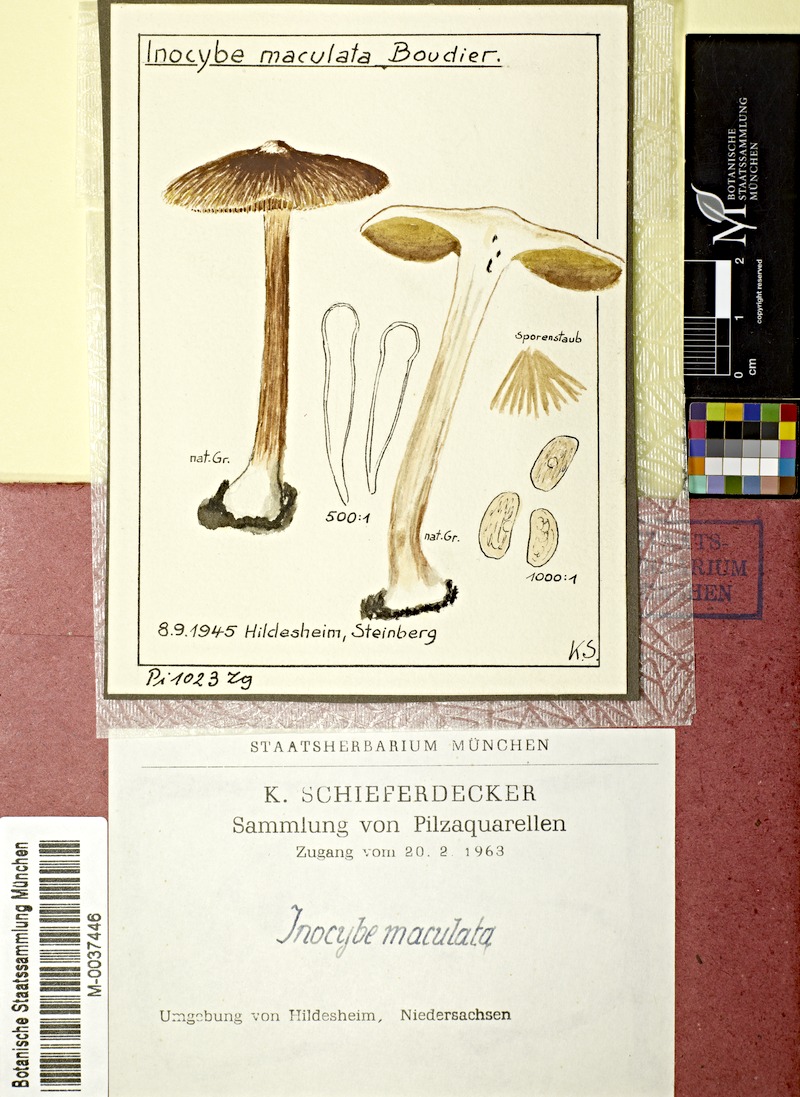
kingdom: Fungi
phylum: Basidiomycota
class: Agaricomycetes
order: Agaricales
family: Inocybaceae
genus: Inosperma
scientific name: Inosperma maculatum
